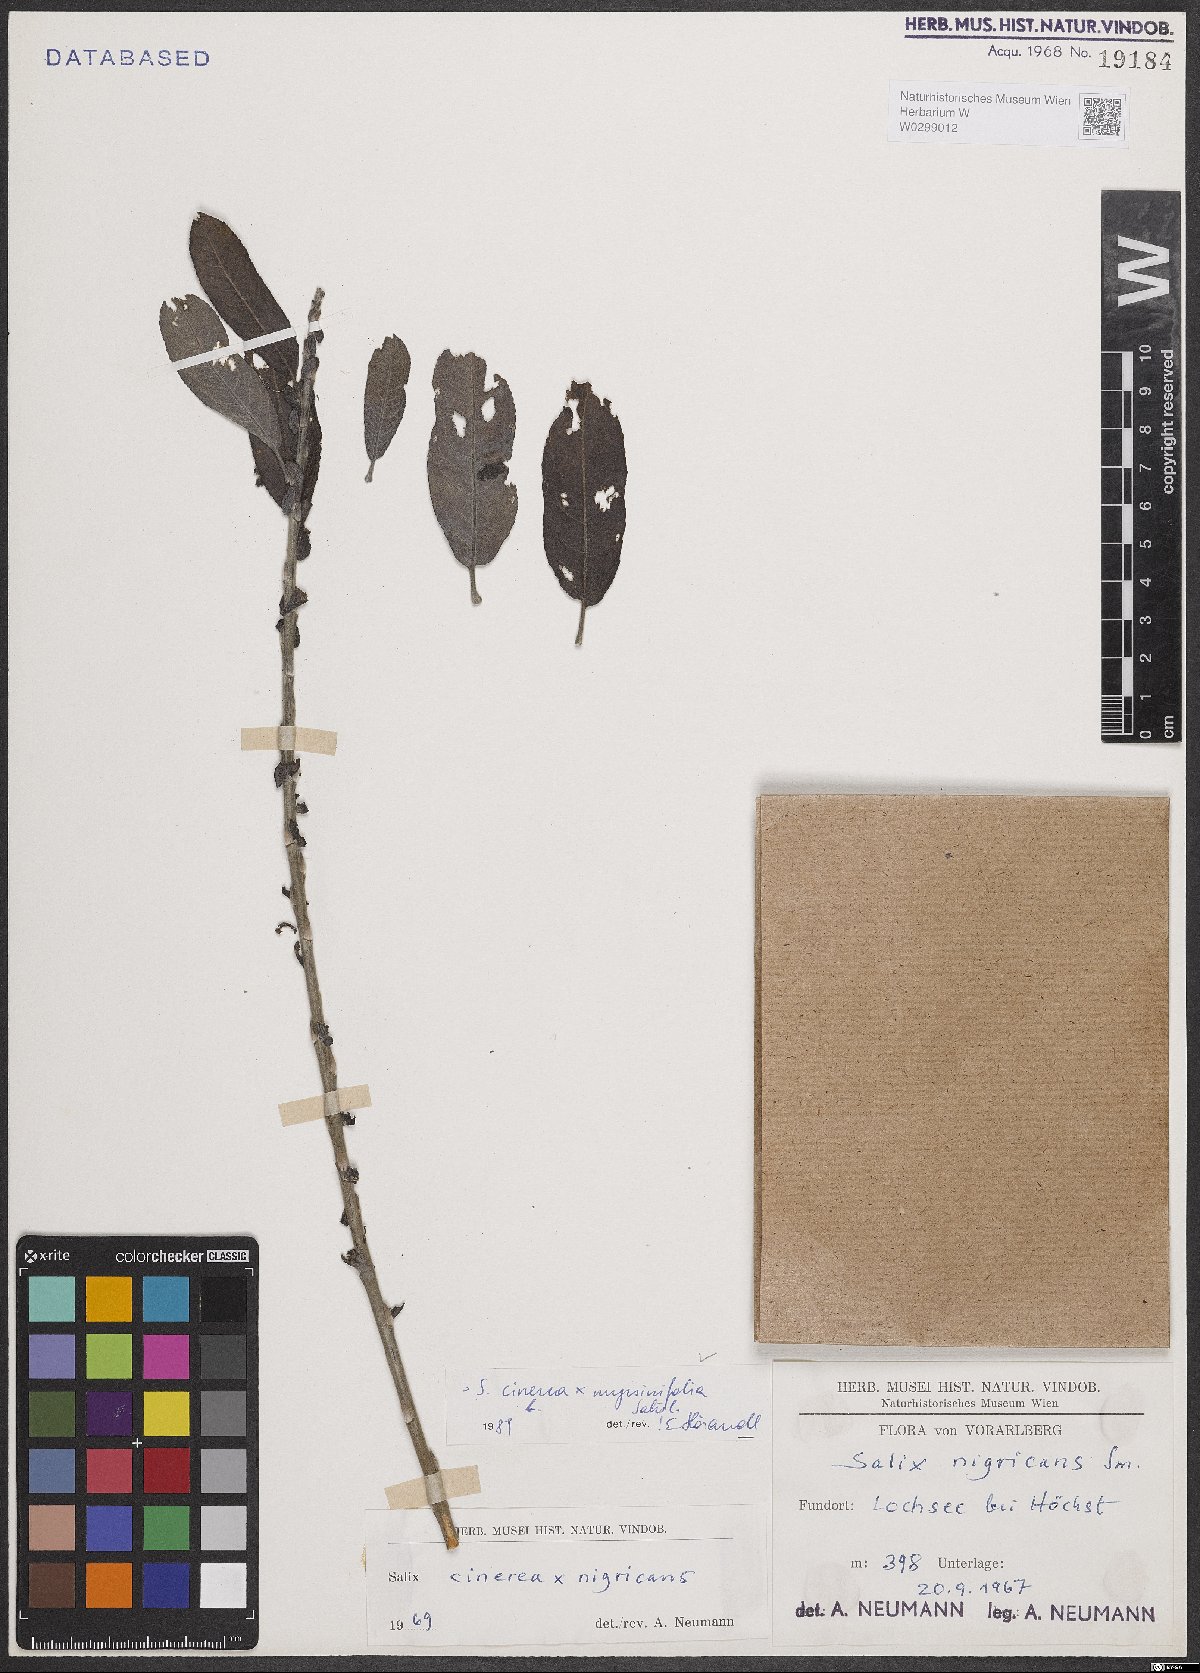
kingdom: Plantae
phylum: Tracheophyta
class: Magnoliopsida
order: Malpighiales
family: Salicaceae
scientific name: Salicaceae
